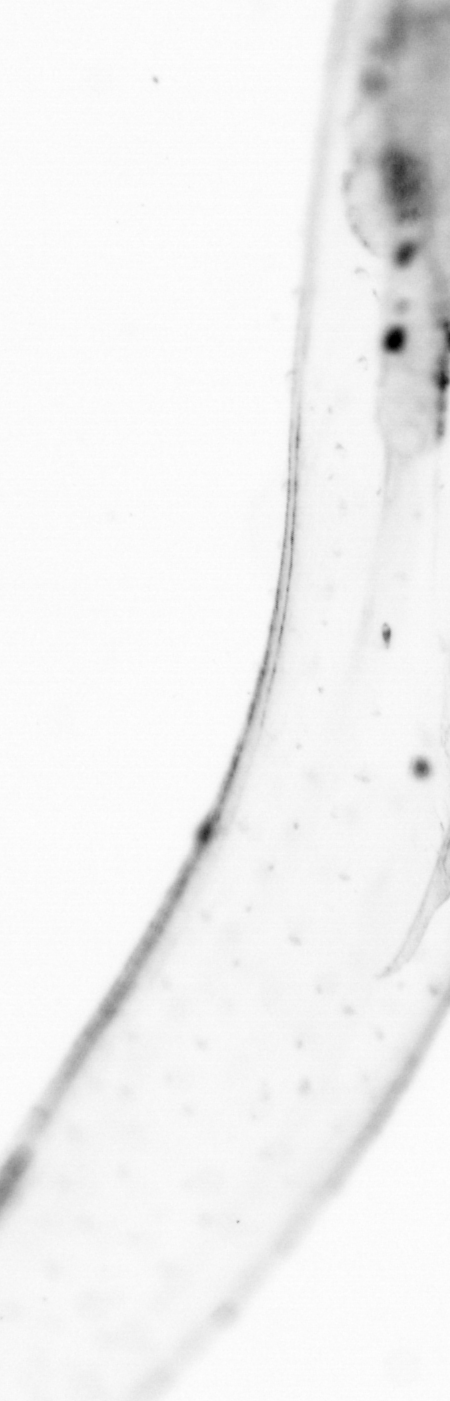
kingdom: Animalia
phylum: Chordata
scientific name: Chordata
